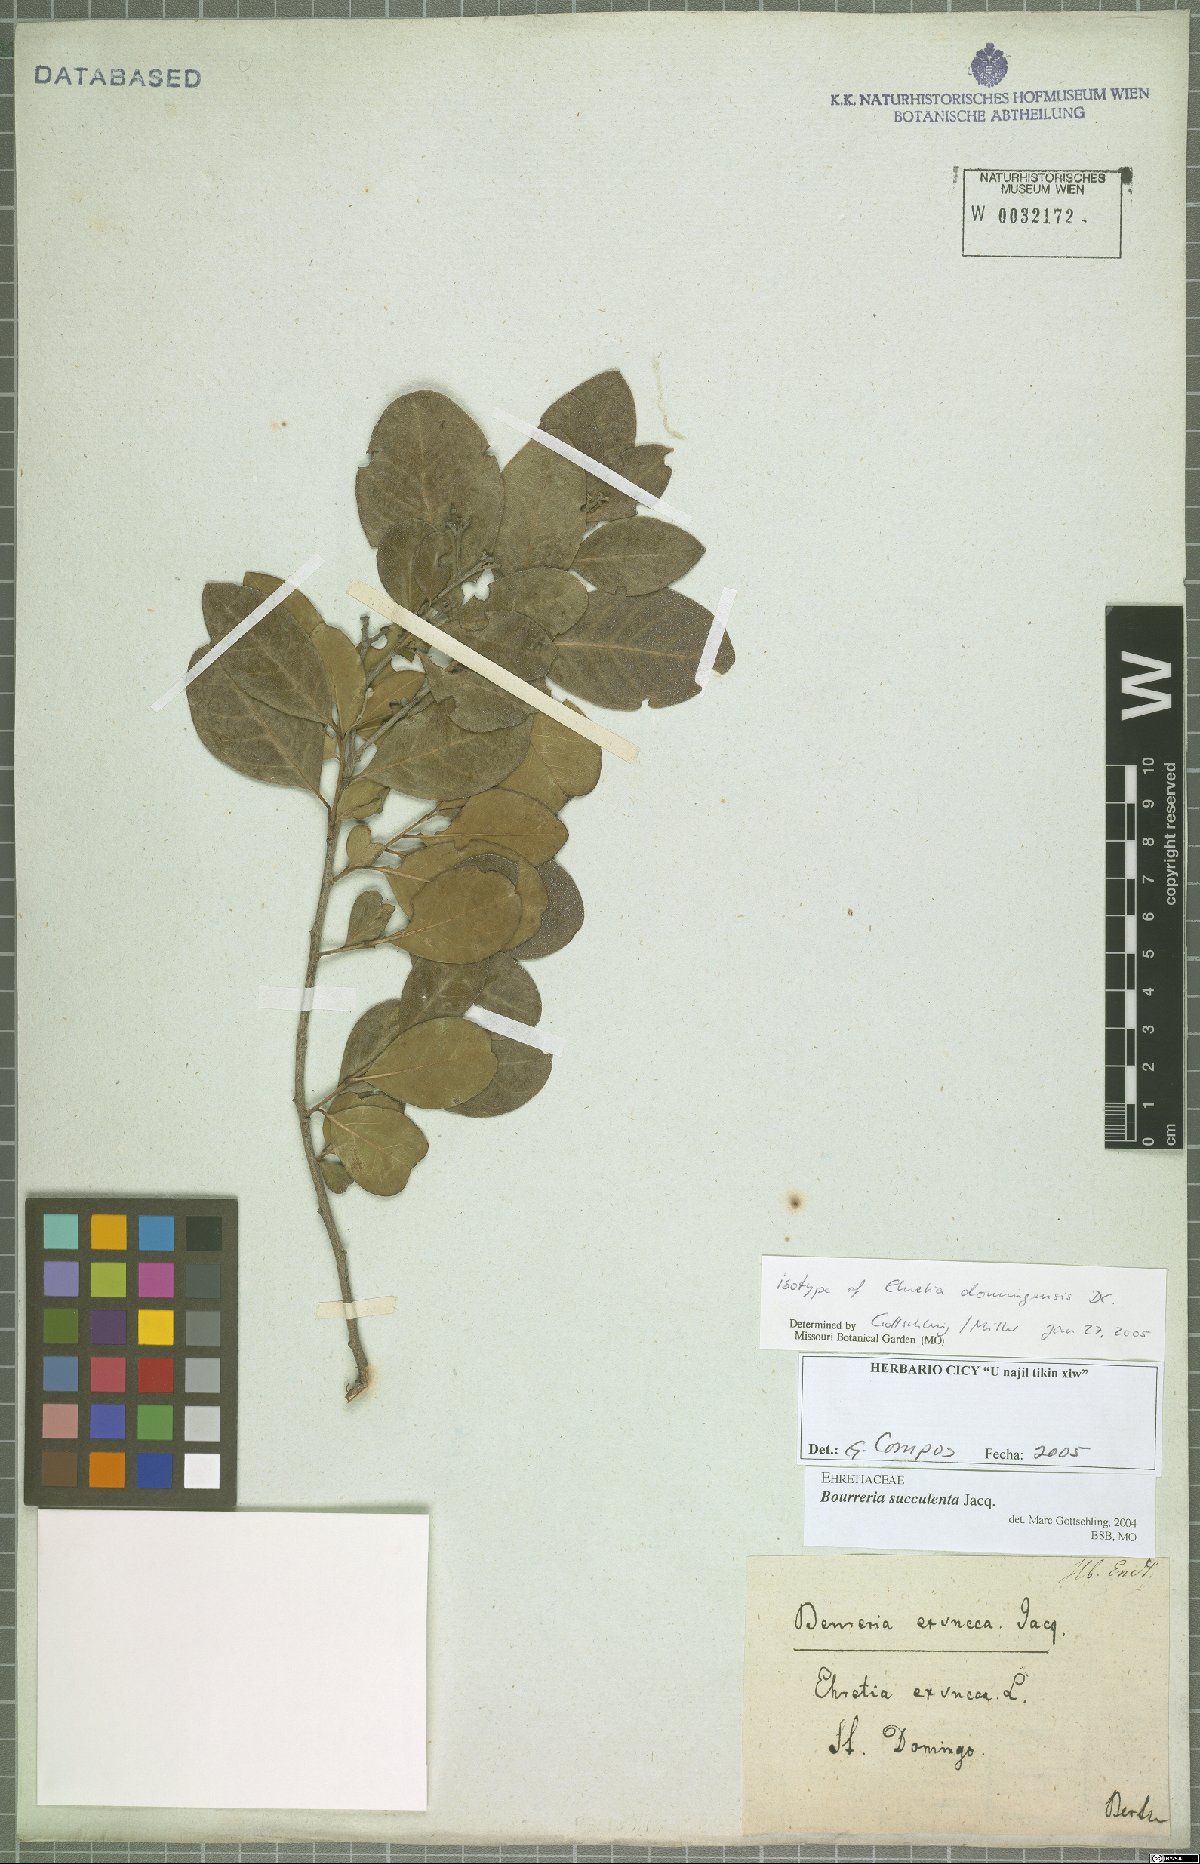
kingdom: Plantae
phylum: Tracheophyta
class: Magnoliopsida
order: Boraginales
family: Ehretiaceae
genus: Bourreria
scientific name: Bourreria succulenta
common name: Cherry
